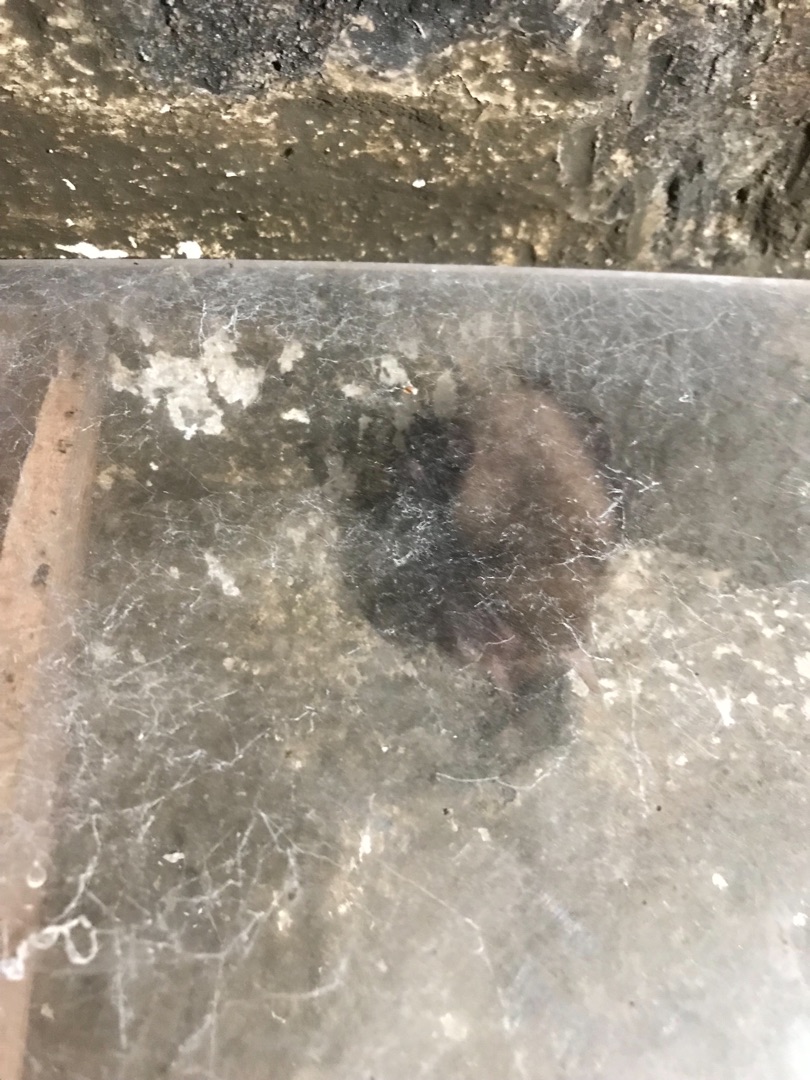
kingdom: Animalia
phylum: Chordata
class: Mammalia
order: Chiroptera
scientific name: Chiroptera
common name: Flagermus
